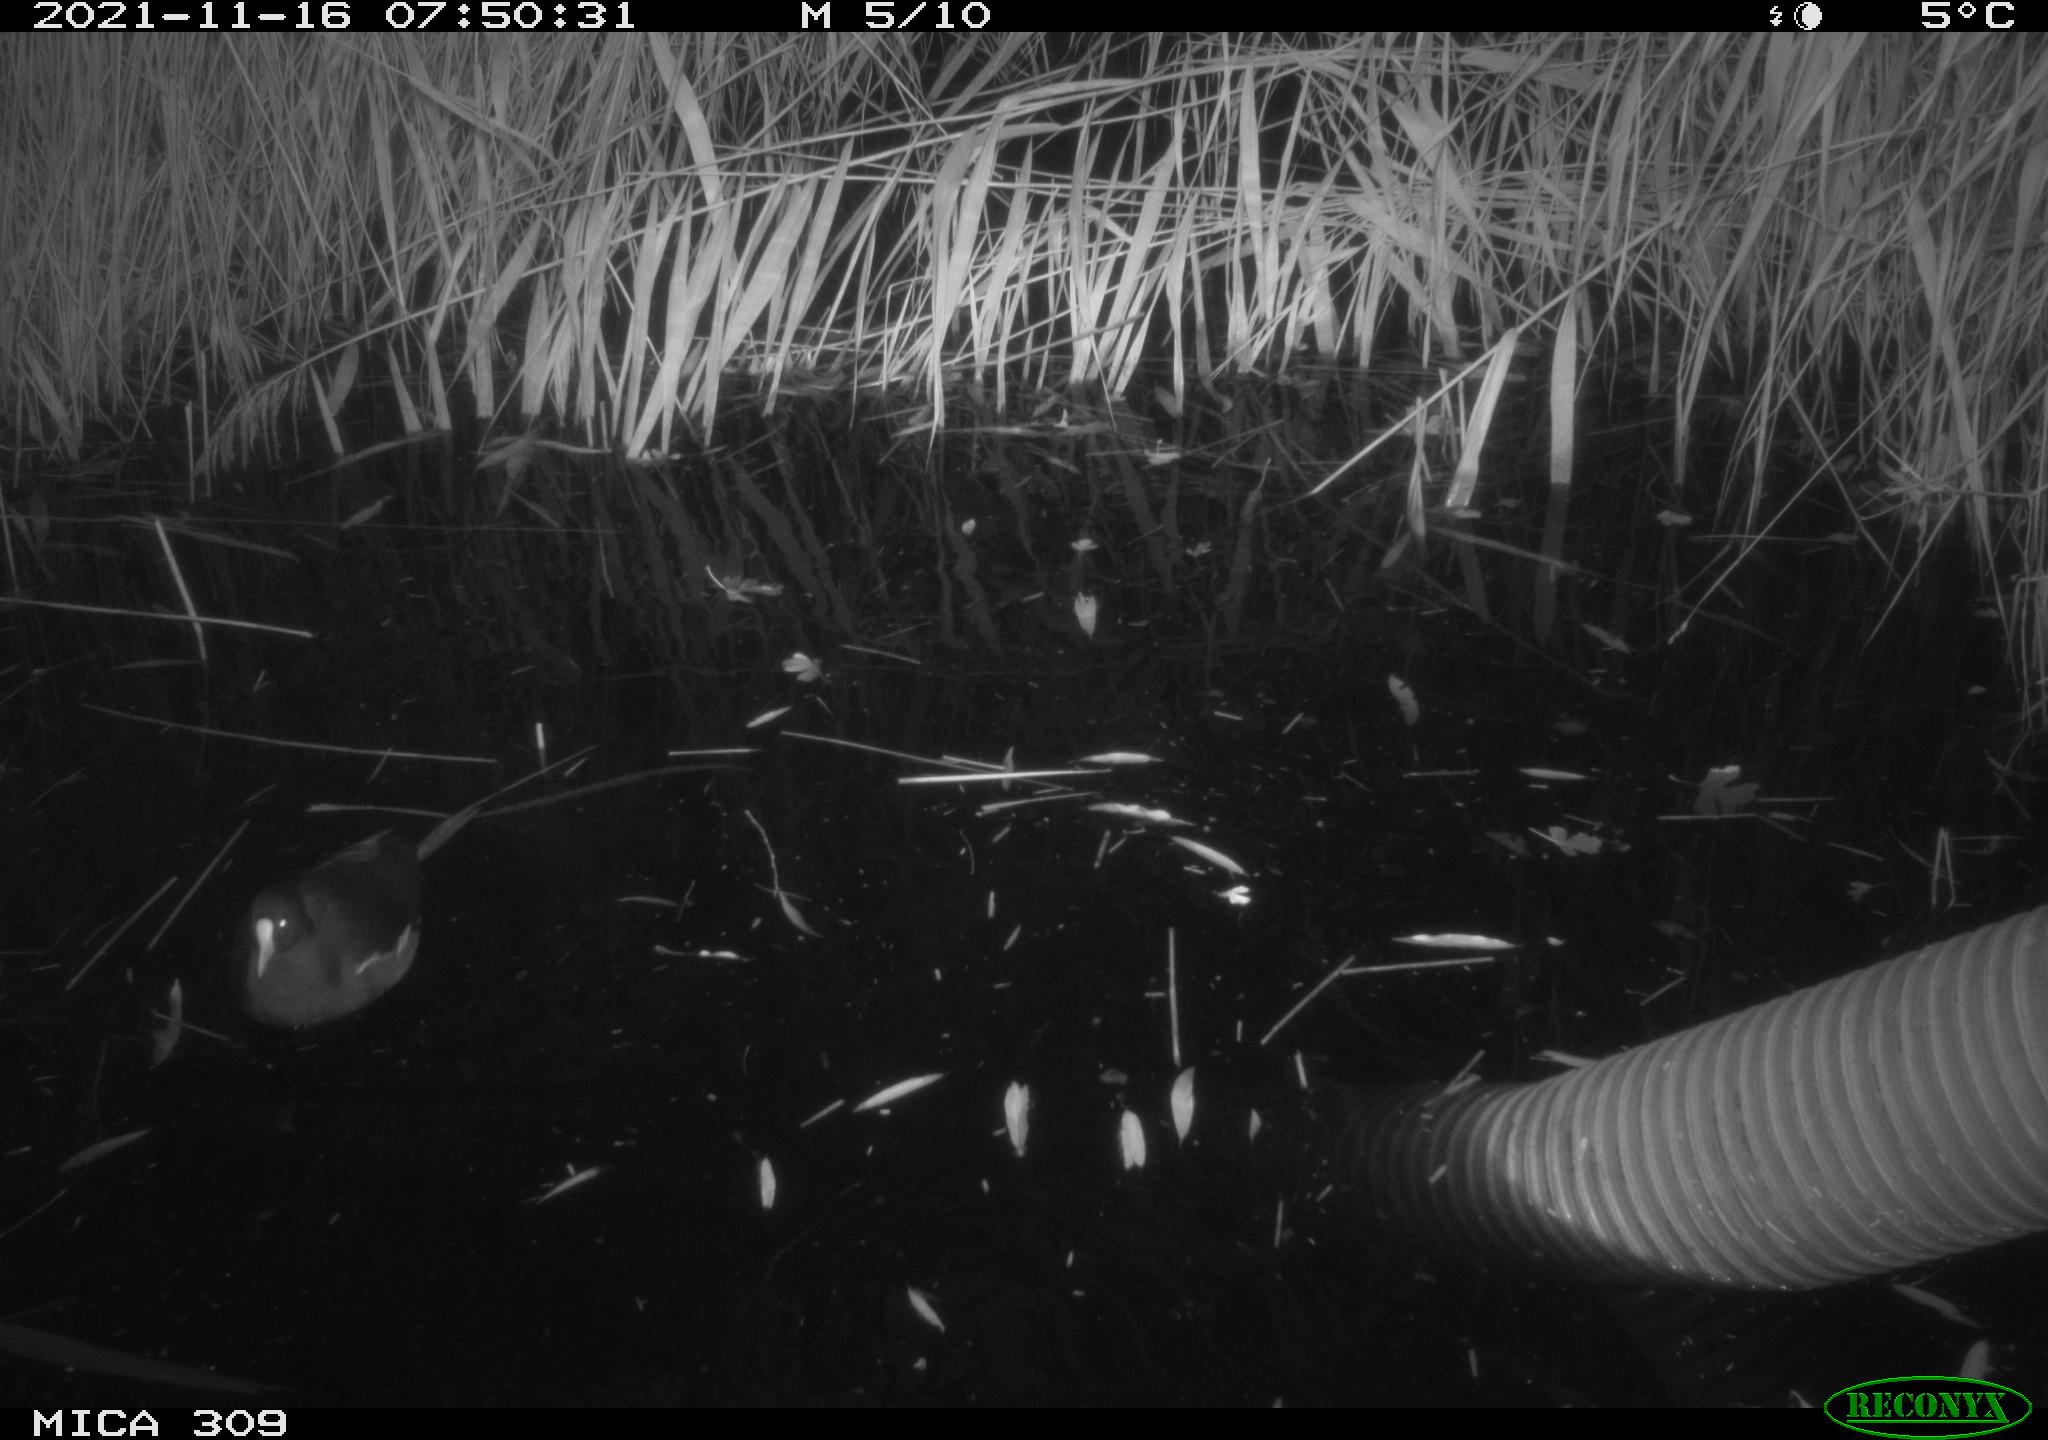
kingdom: Animalia
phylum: Chordata
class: Aves
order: Gruiformes
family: Rallidae
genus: Gallinula
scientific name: Gallinula chloropus
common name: Common moorhen
